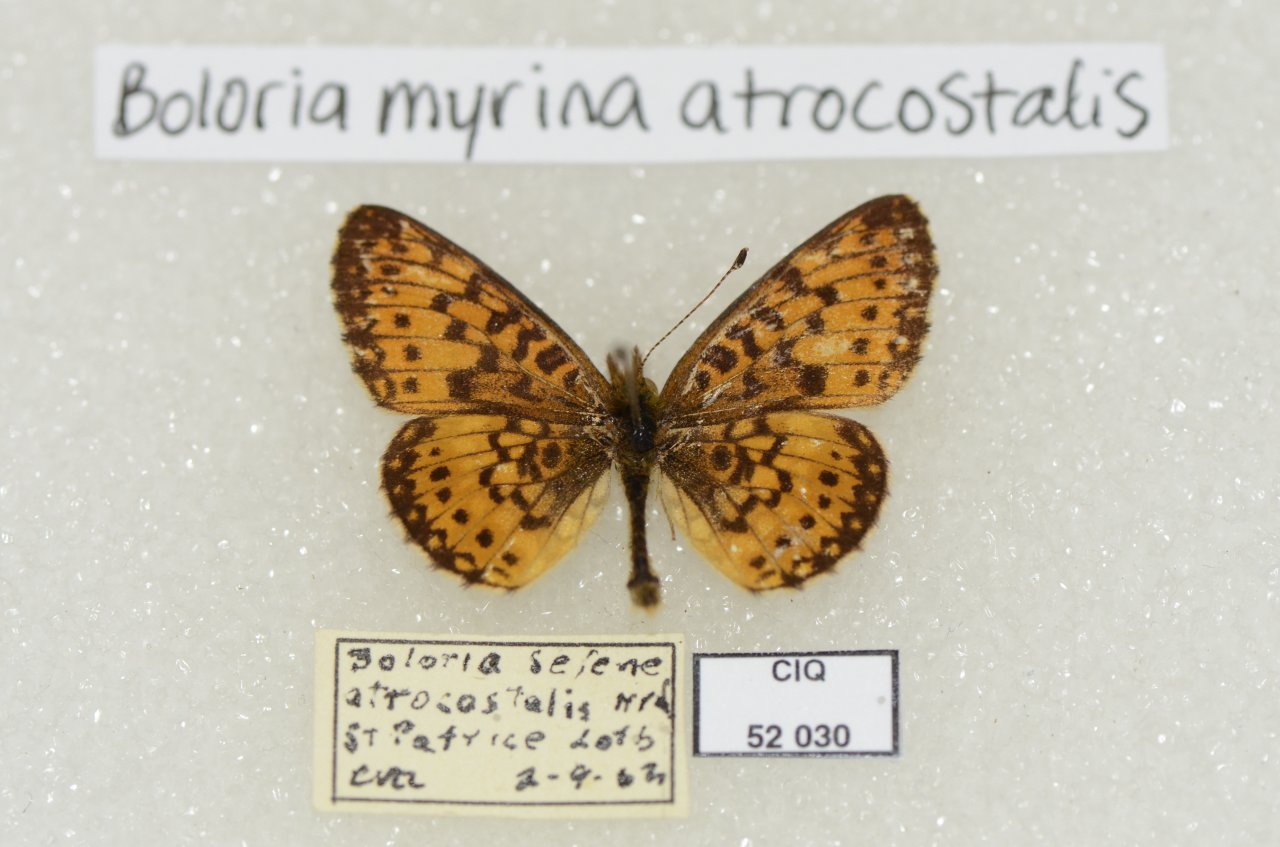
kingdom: Animalia
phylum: Arthropoda
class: Insecta
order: Lepidoptera
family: Nymphalidae
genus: Boloria
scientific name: Boloria selene
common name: Silver-bordered Fritillary
